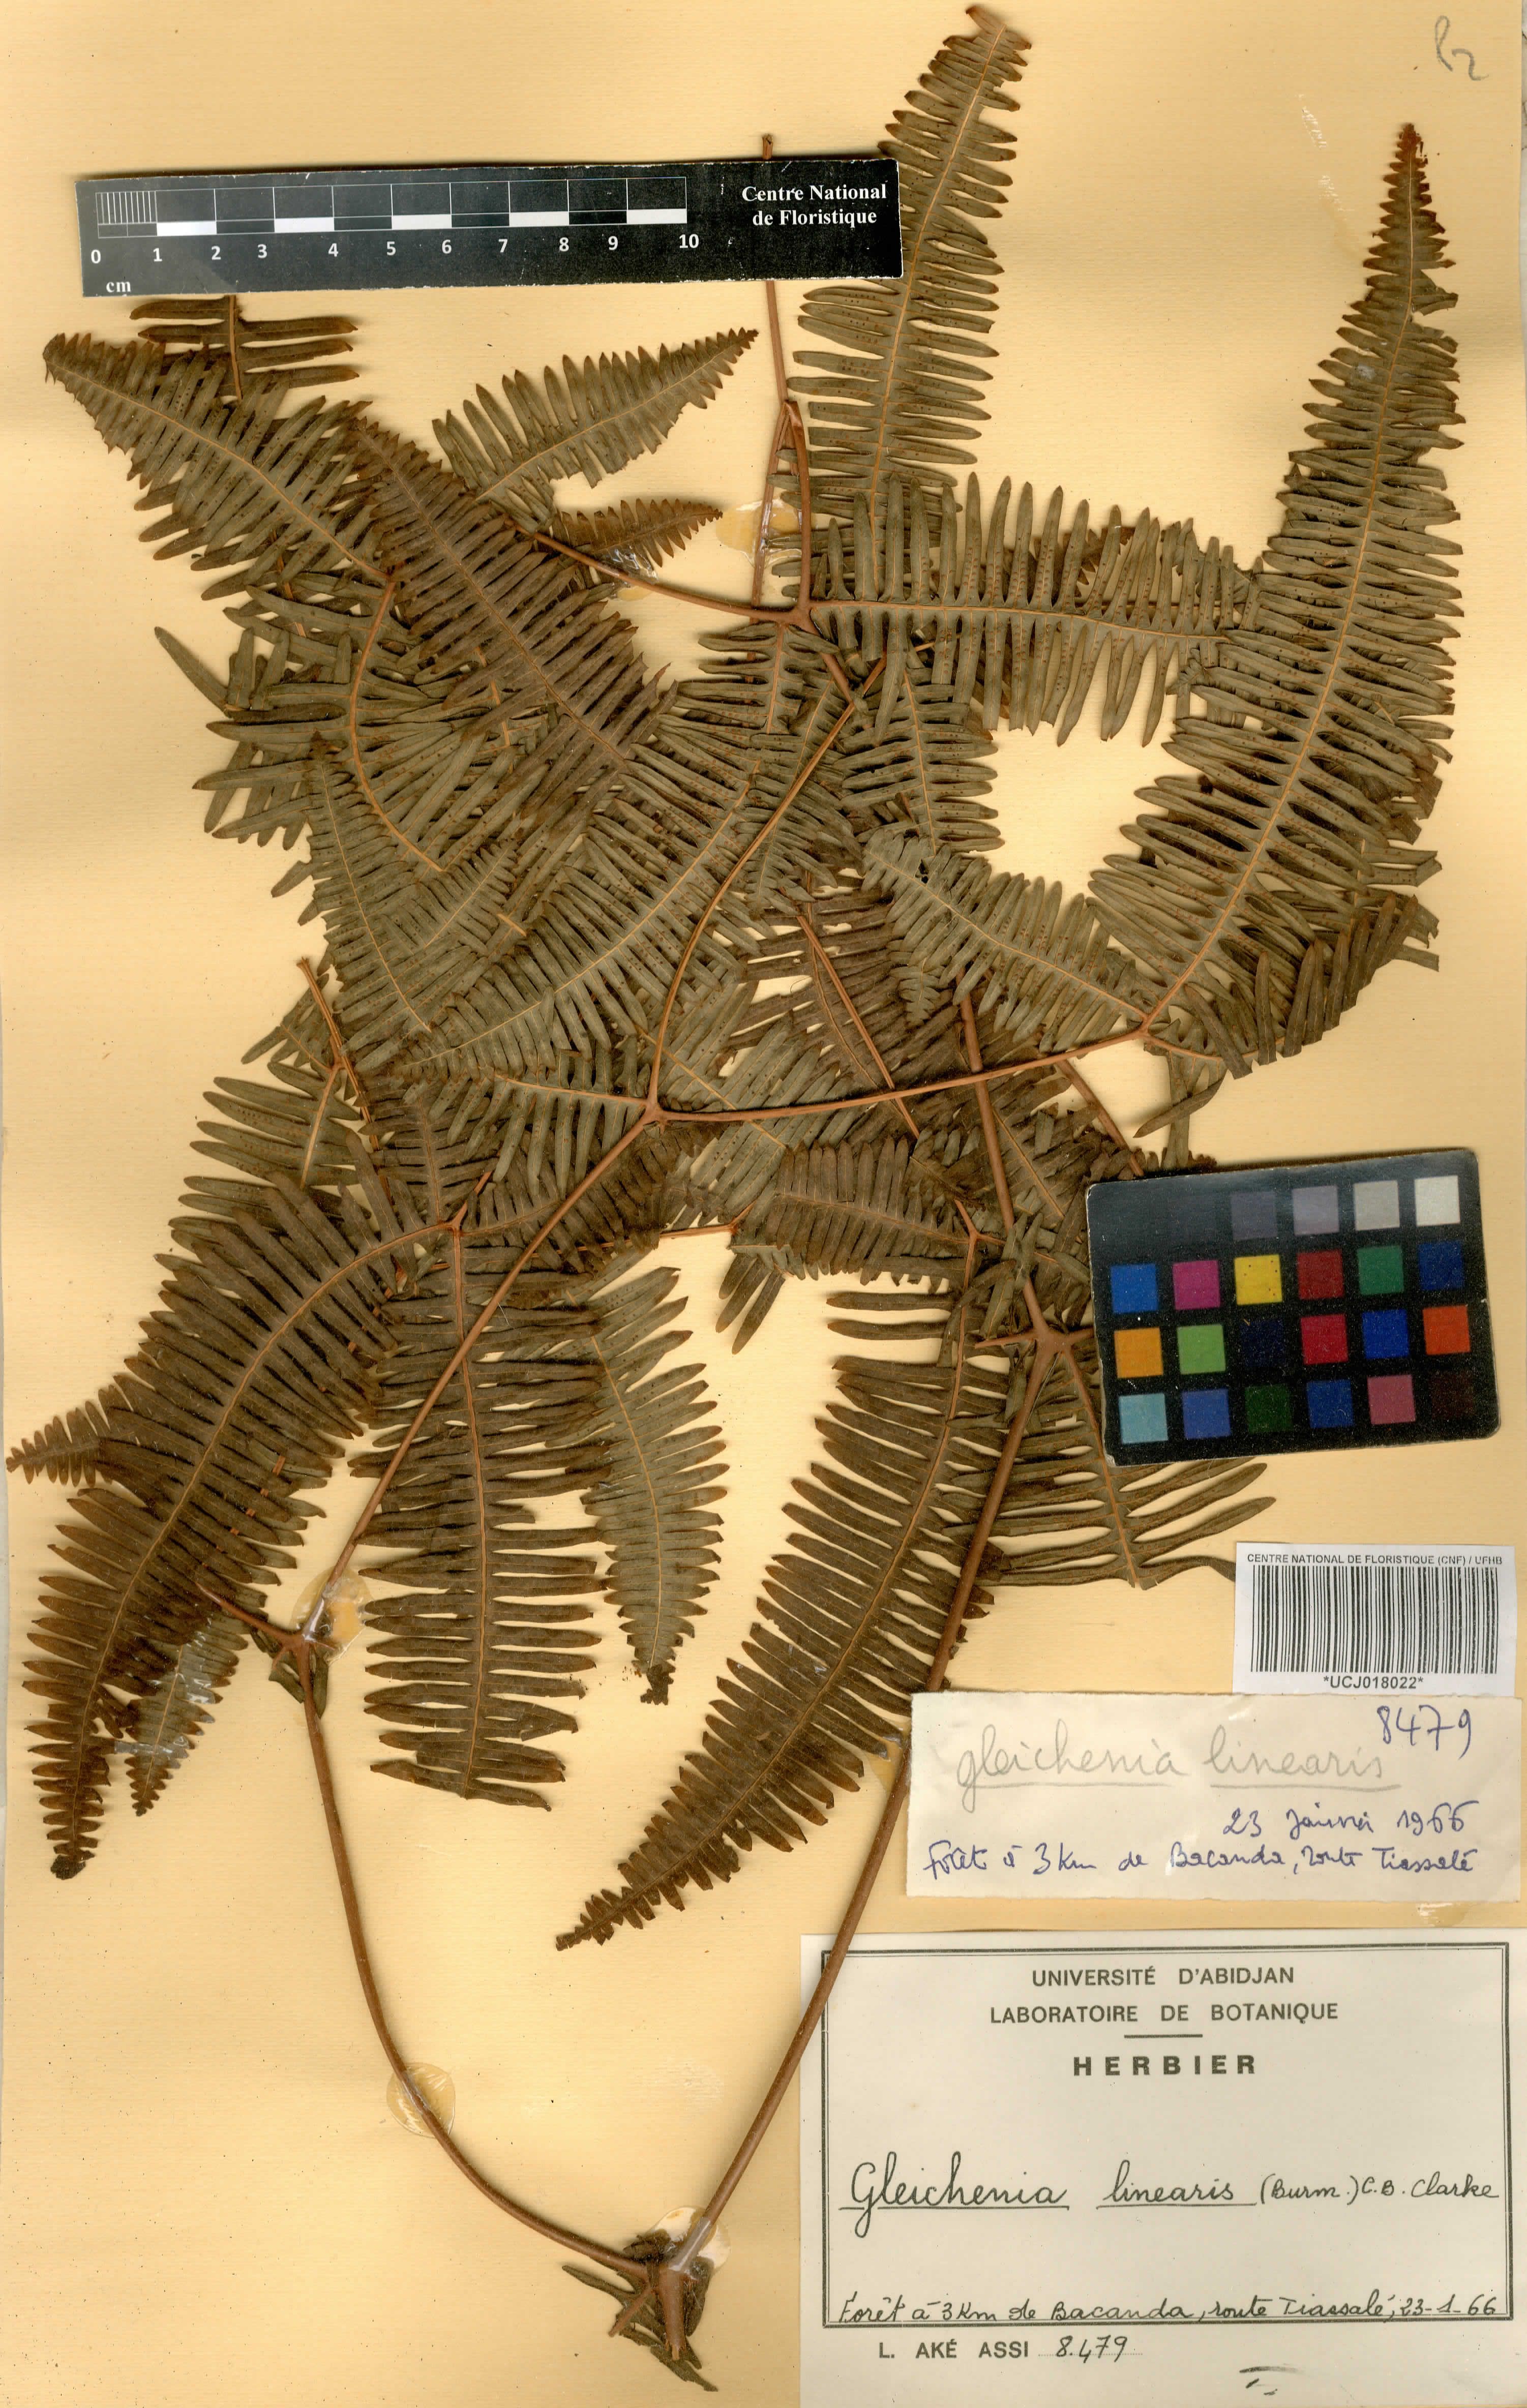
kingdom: Plantae
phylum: Tracheophyta
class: Polypodiopsida
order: Gleicheniales
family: Gleicheniaceae
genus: Dicranopteris
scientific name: Dicranopteris linearis
